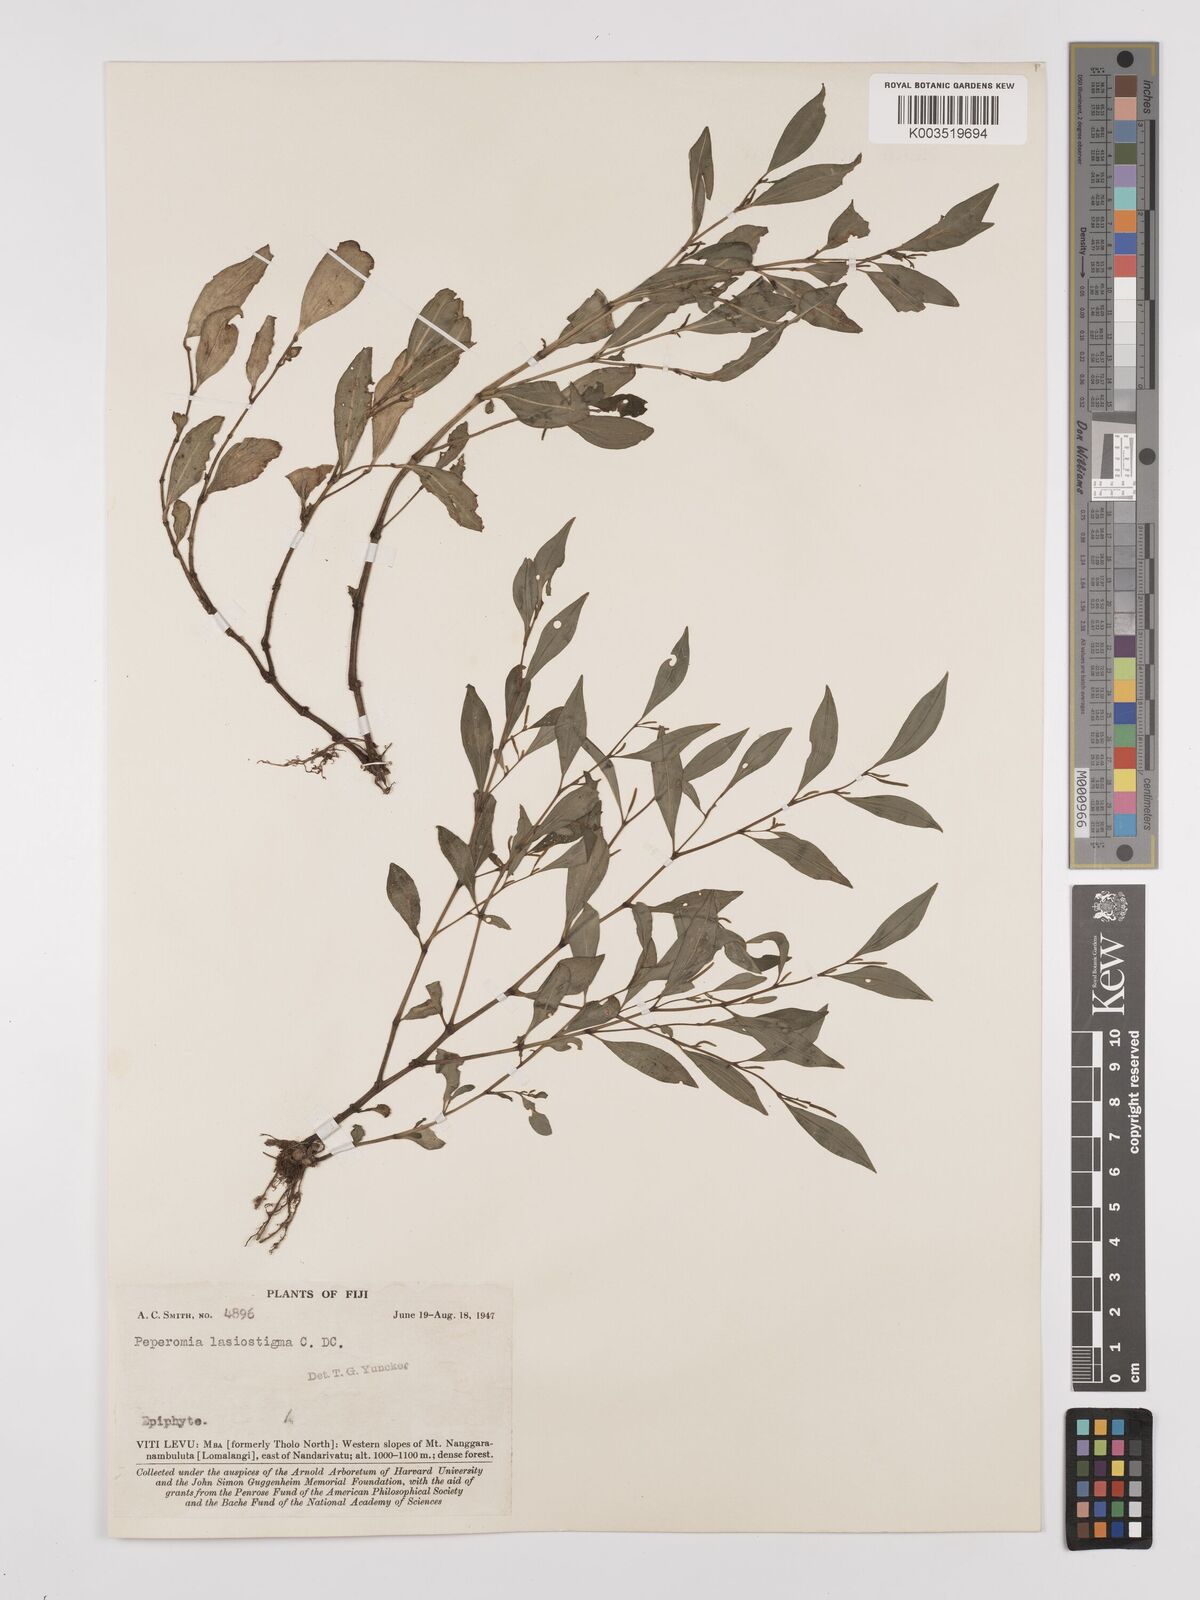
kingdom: Plantae
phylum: Tracheophyta
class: Magnoliopsida
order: Piperales
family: Piperaceae
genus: Peperomia
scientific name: Peperomia lasiostigma
